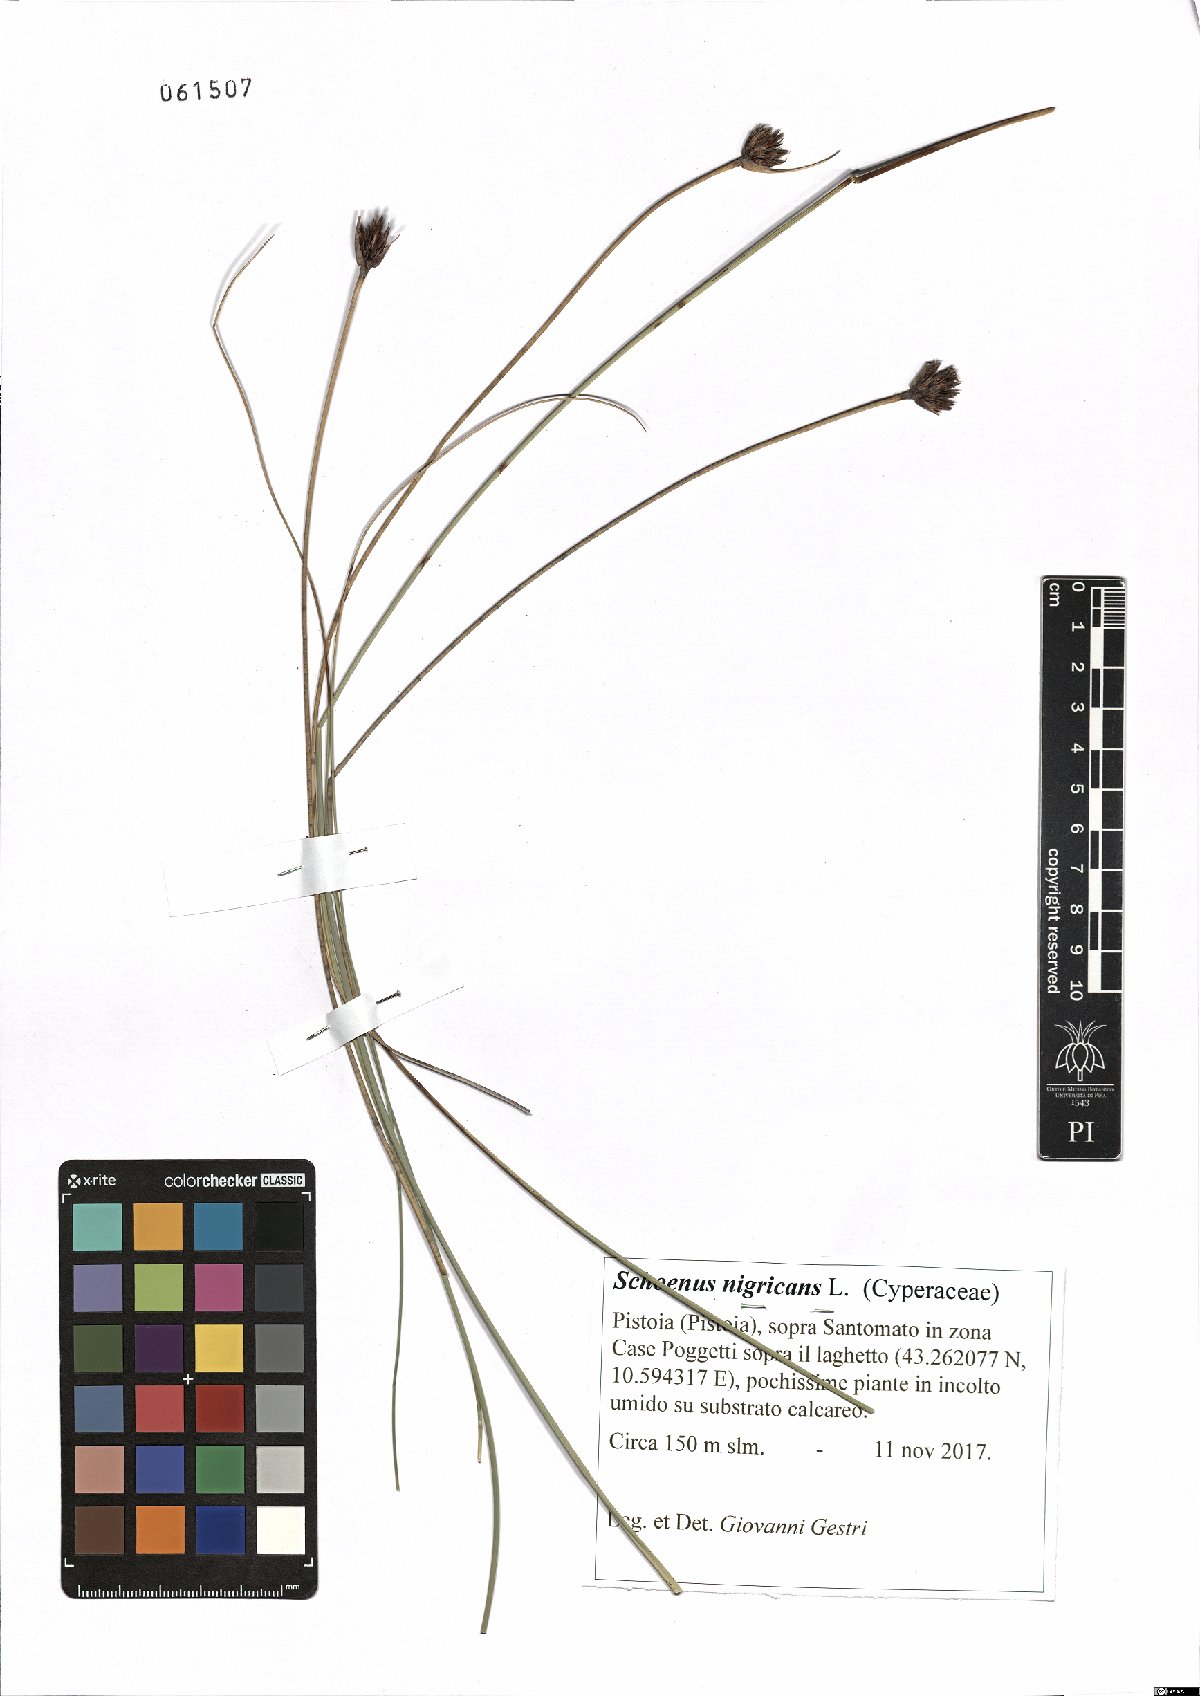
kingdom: Plantae
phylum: Tracheophyta
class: Liliopsida
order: Poales
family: Cyperaceae
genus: Schoenus
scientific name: Schoenus nigricans
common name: Black bog-rush
